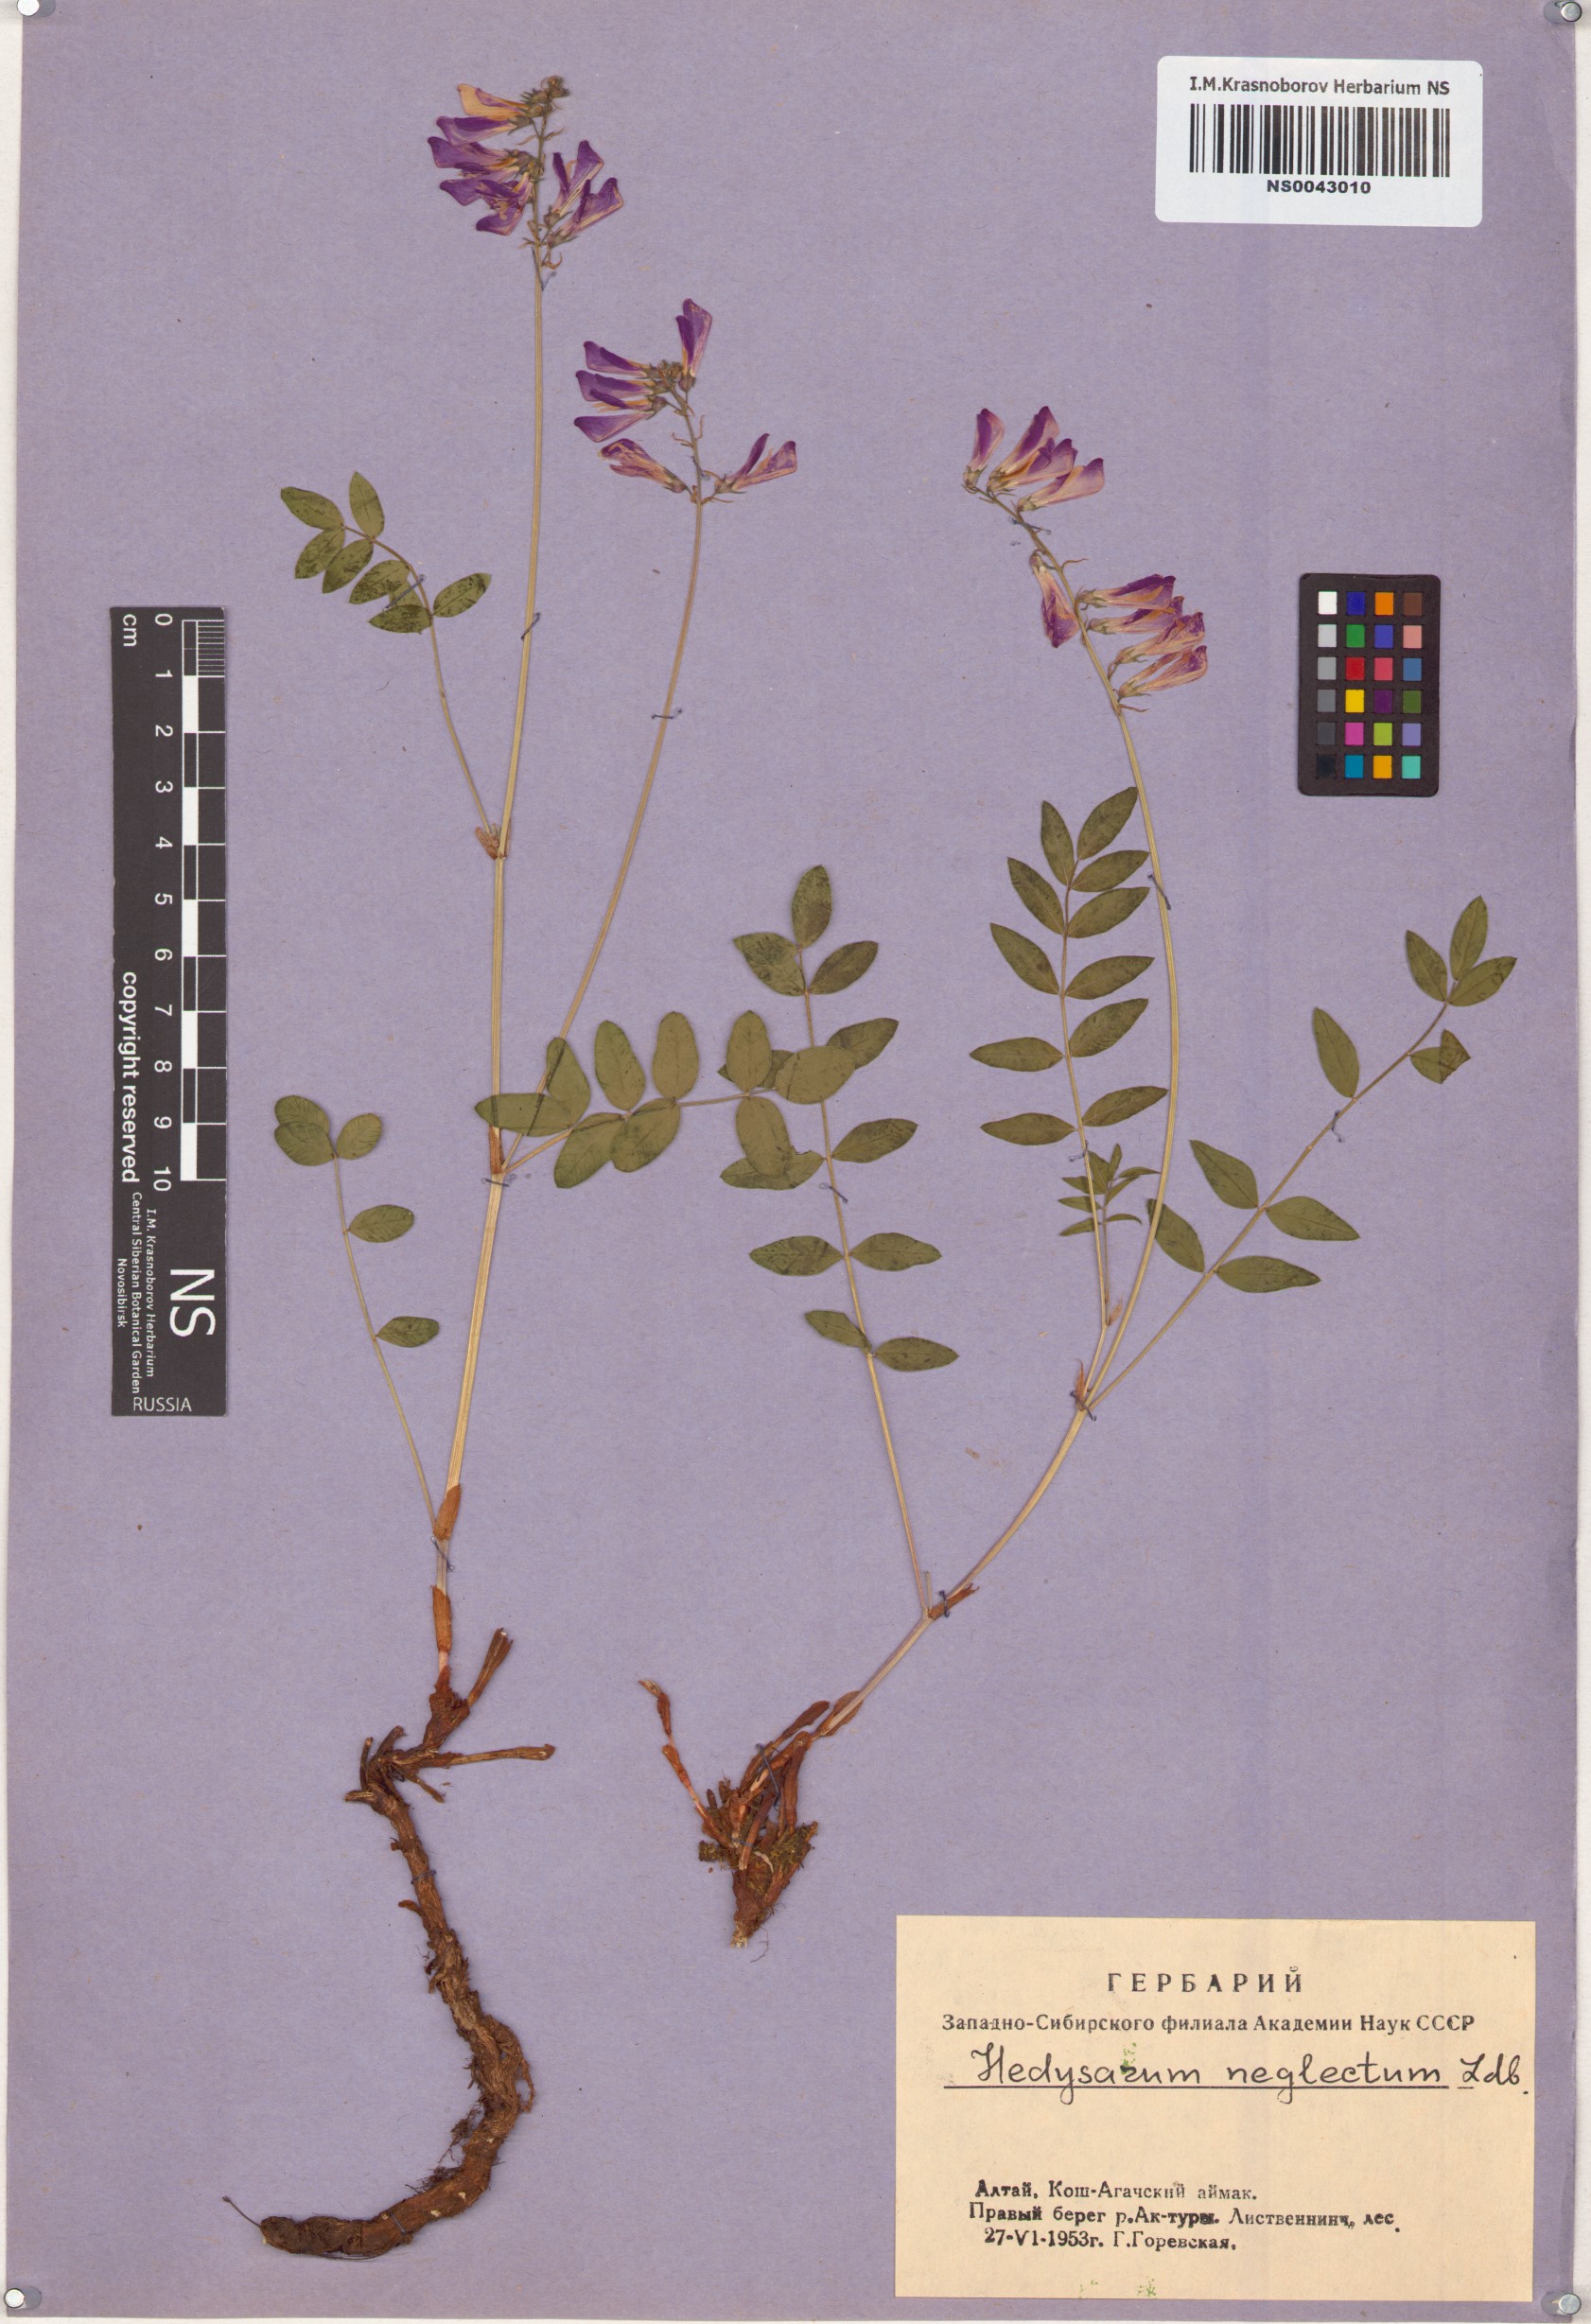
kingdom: Plantae
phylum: Tracheophyta
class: Magnoliopsida
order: Fabales
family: Fabaceae
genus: Hedysarum
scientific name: Hedysarum neglectum
